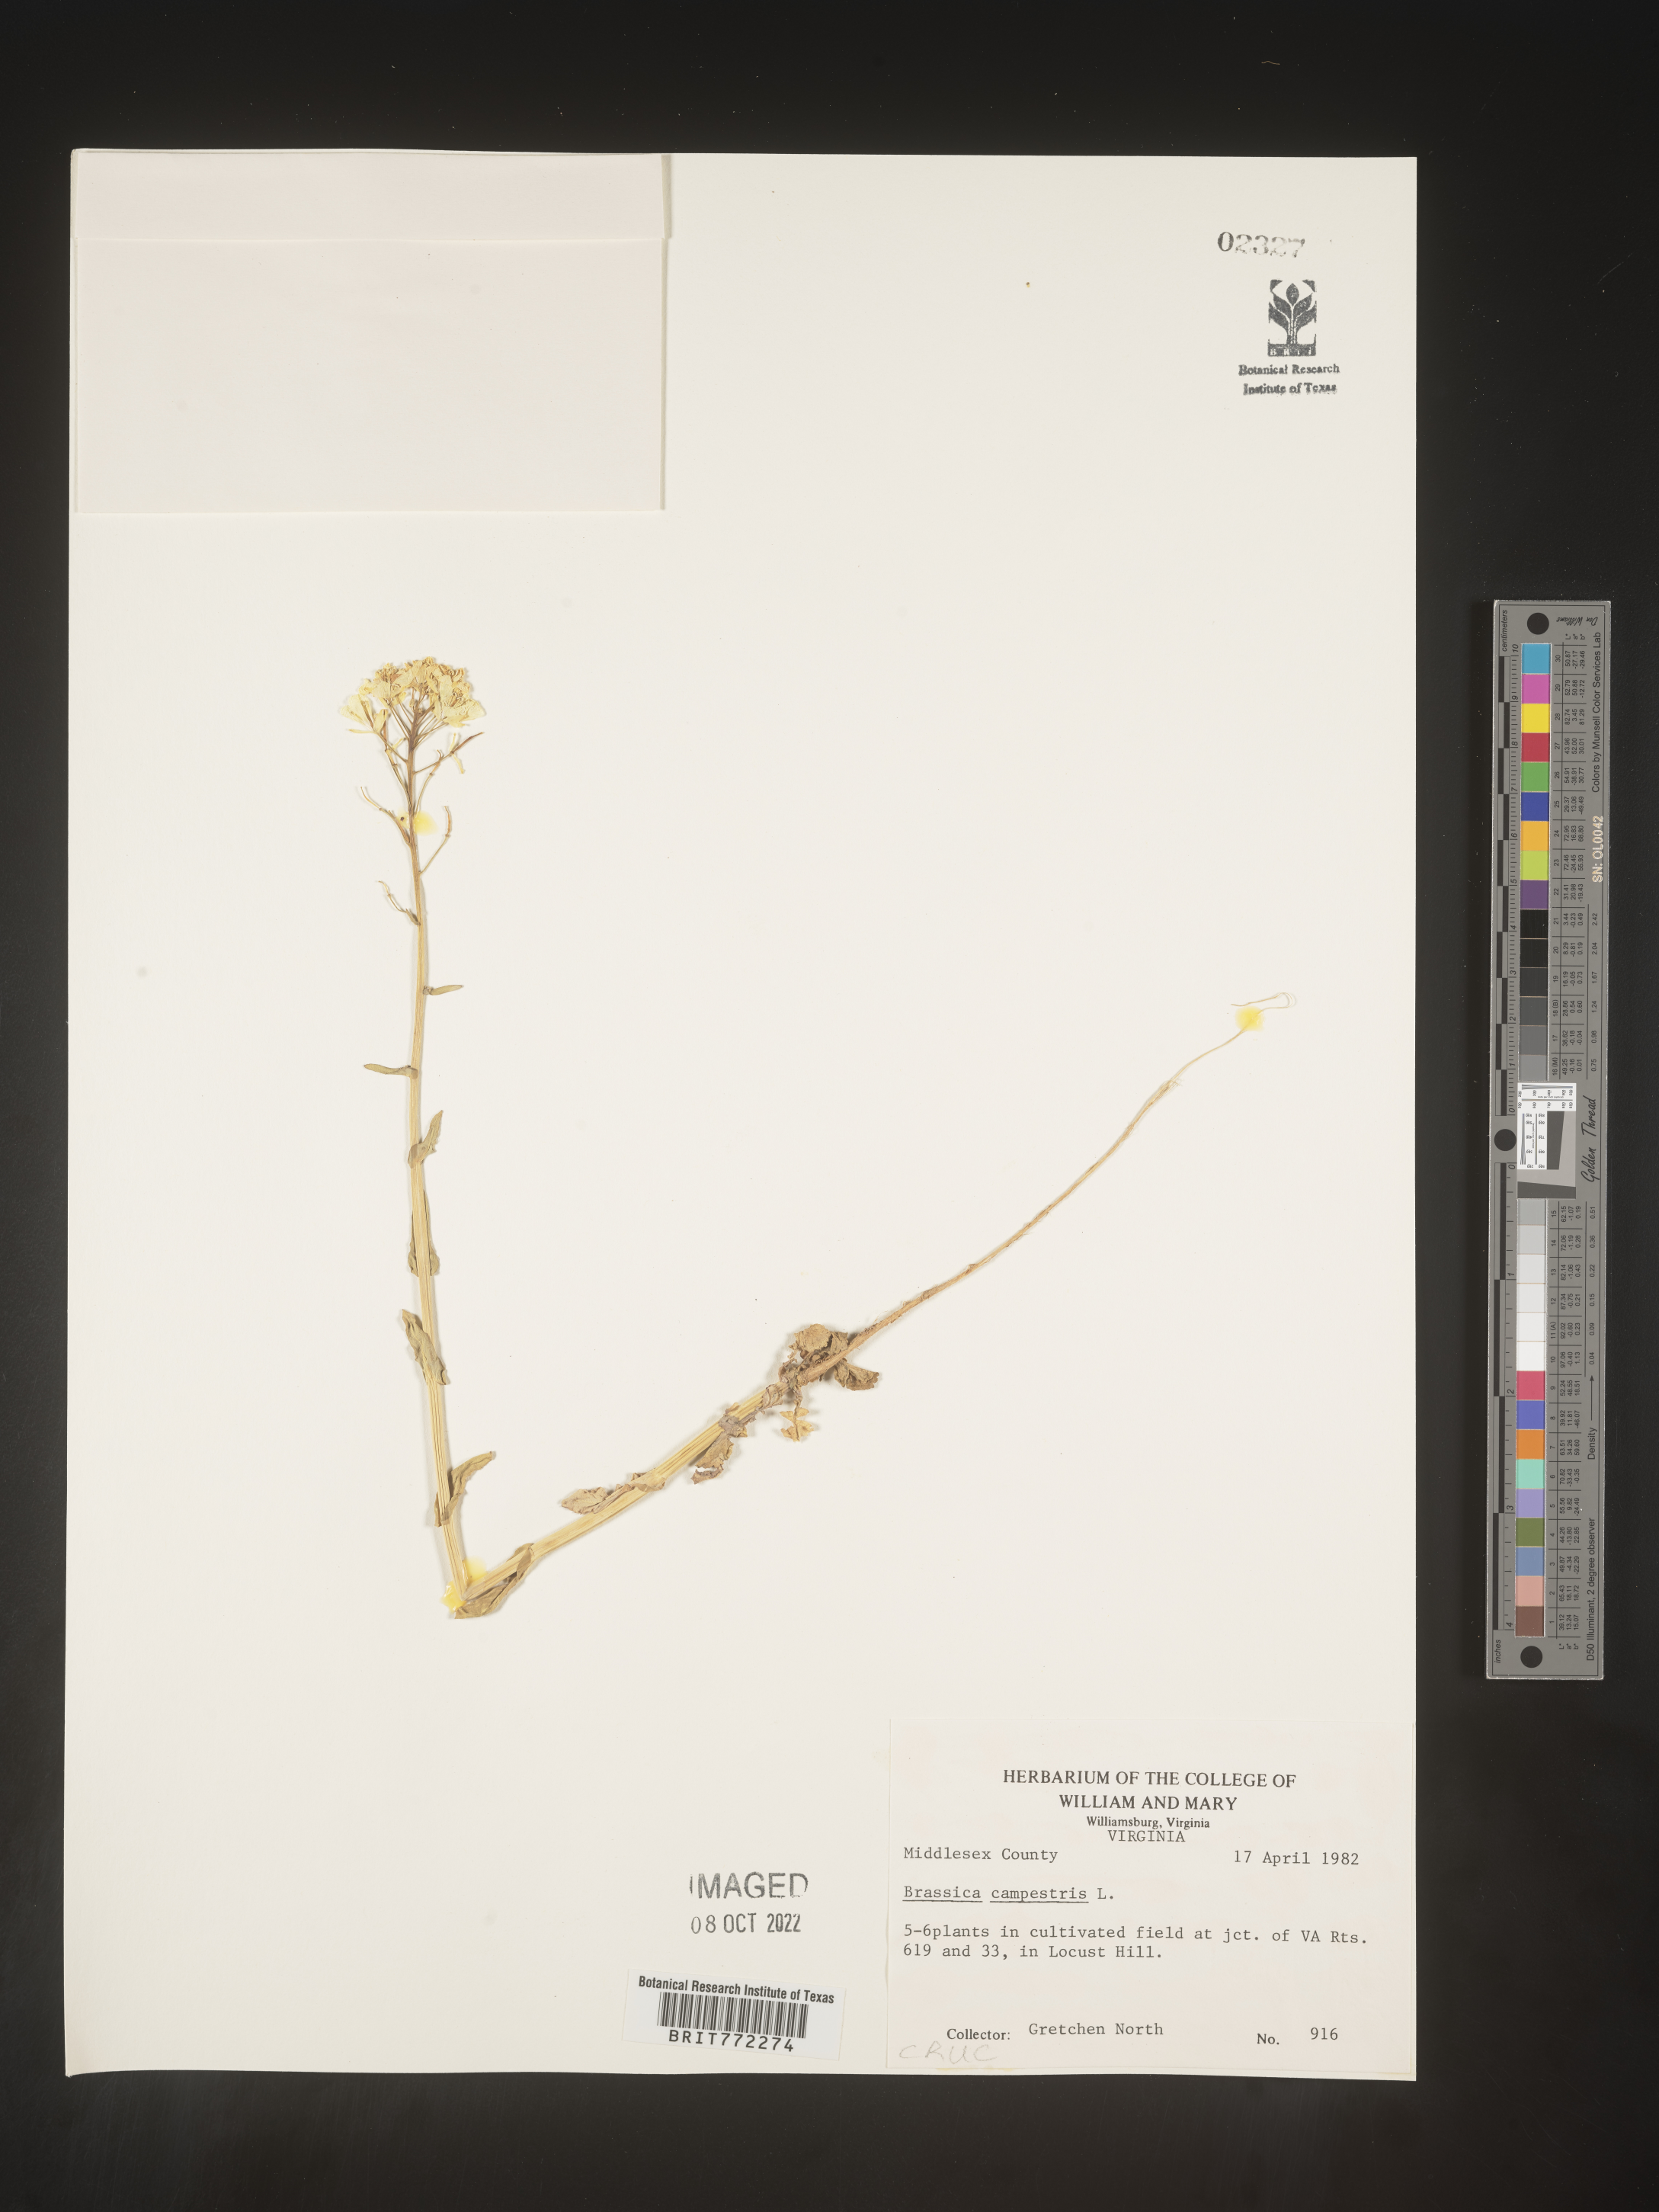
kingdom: Plantae
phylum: Tracheophyta
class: Magnoliopsida
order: Brassicales
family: Brassicaceae
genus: Brassica
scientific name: Brassica
